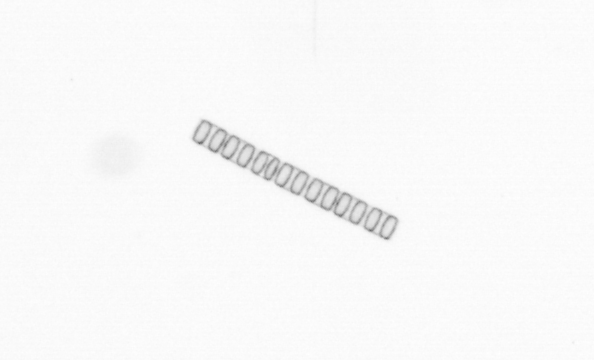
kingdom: Chromista
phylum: Ochrophyta
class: Bacillariophyceae
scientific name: Bacillariophyceae
